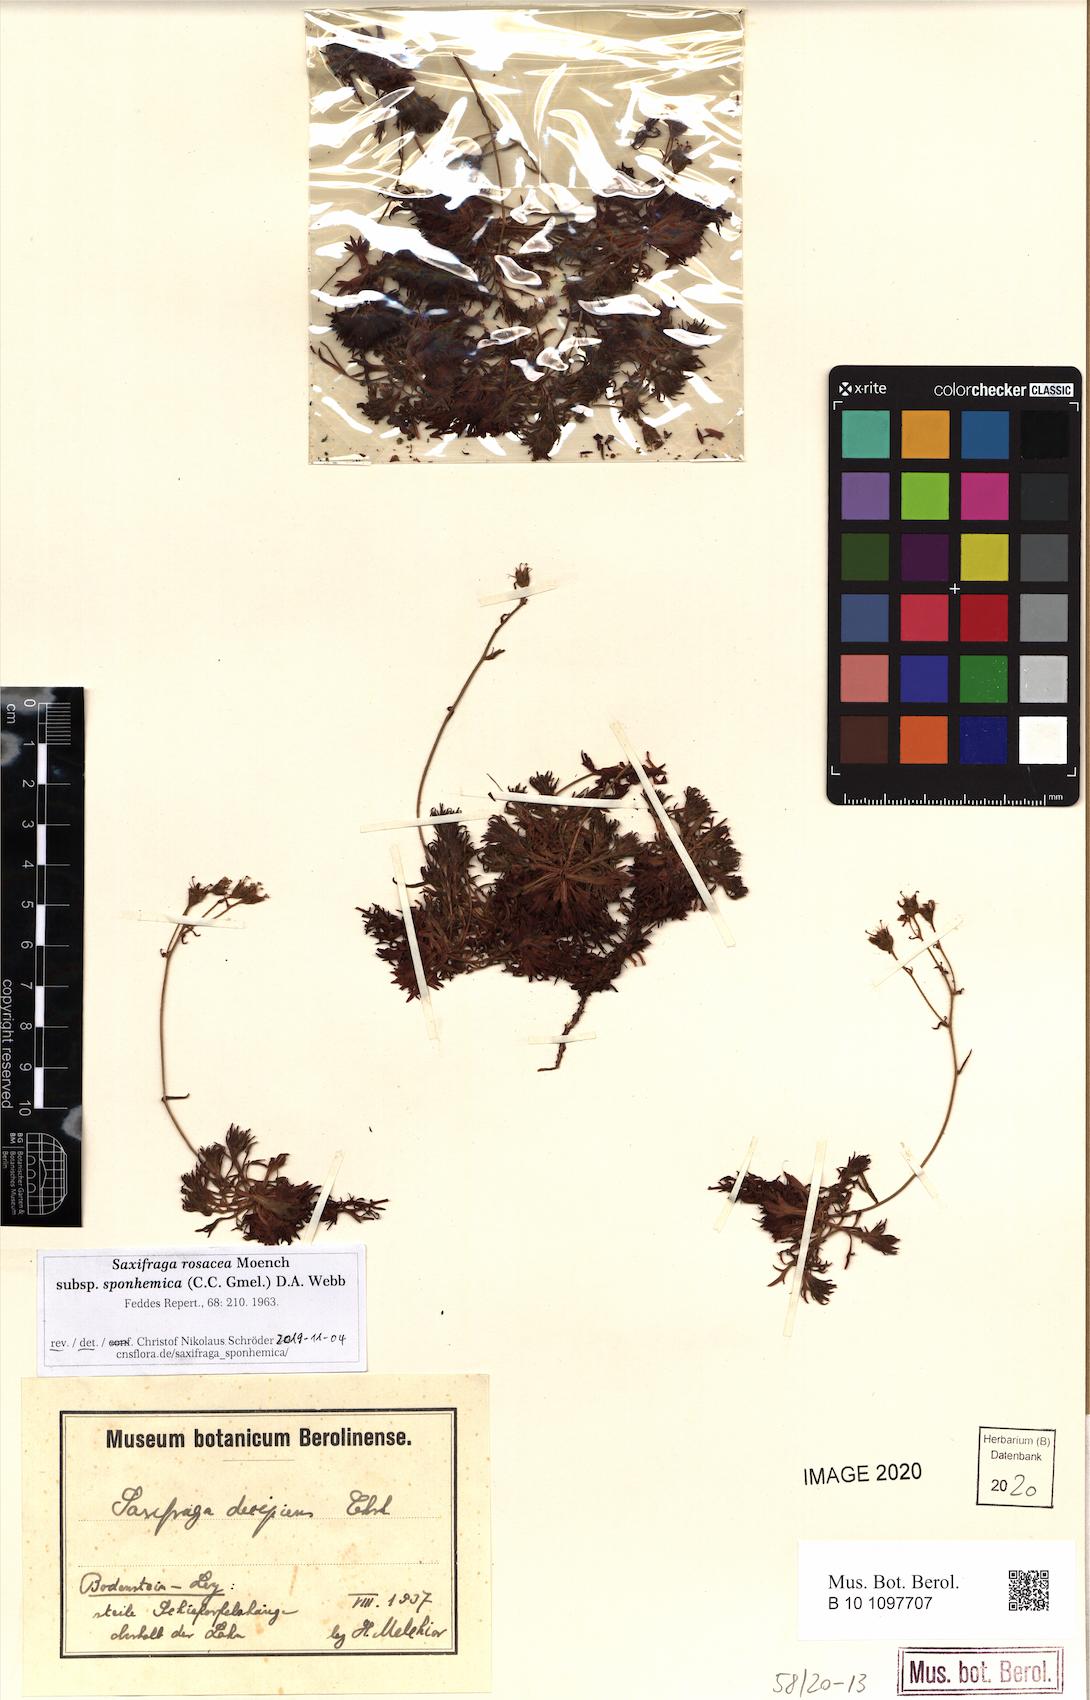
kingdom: Plantae
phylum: Tracheophyta
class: Magnoliopsida
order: Saxifragales
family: Saxifragaceae
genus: Saxifraga
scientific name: Saxifraga rosacea
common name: Irish saxifrage
